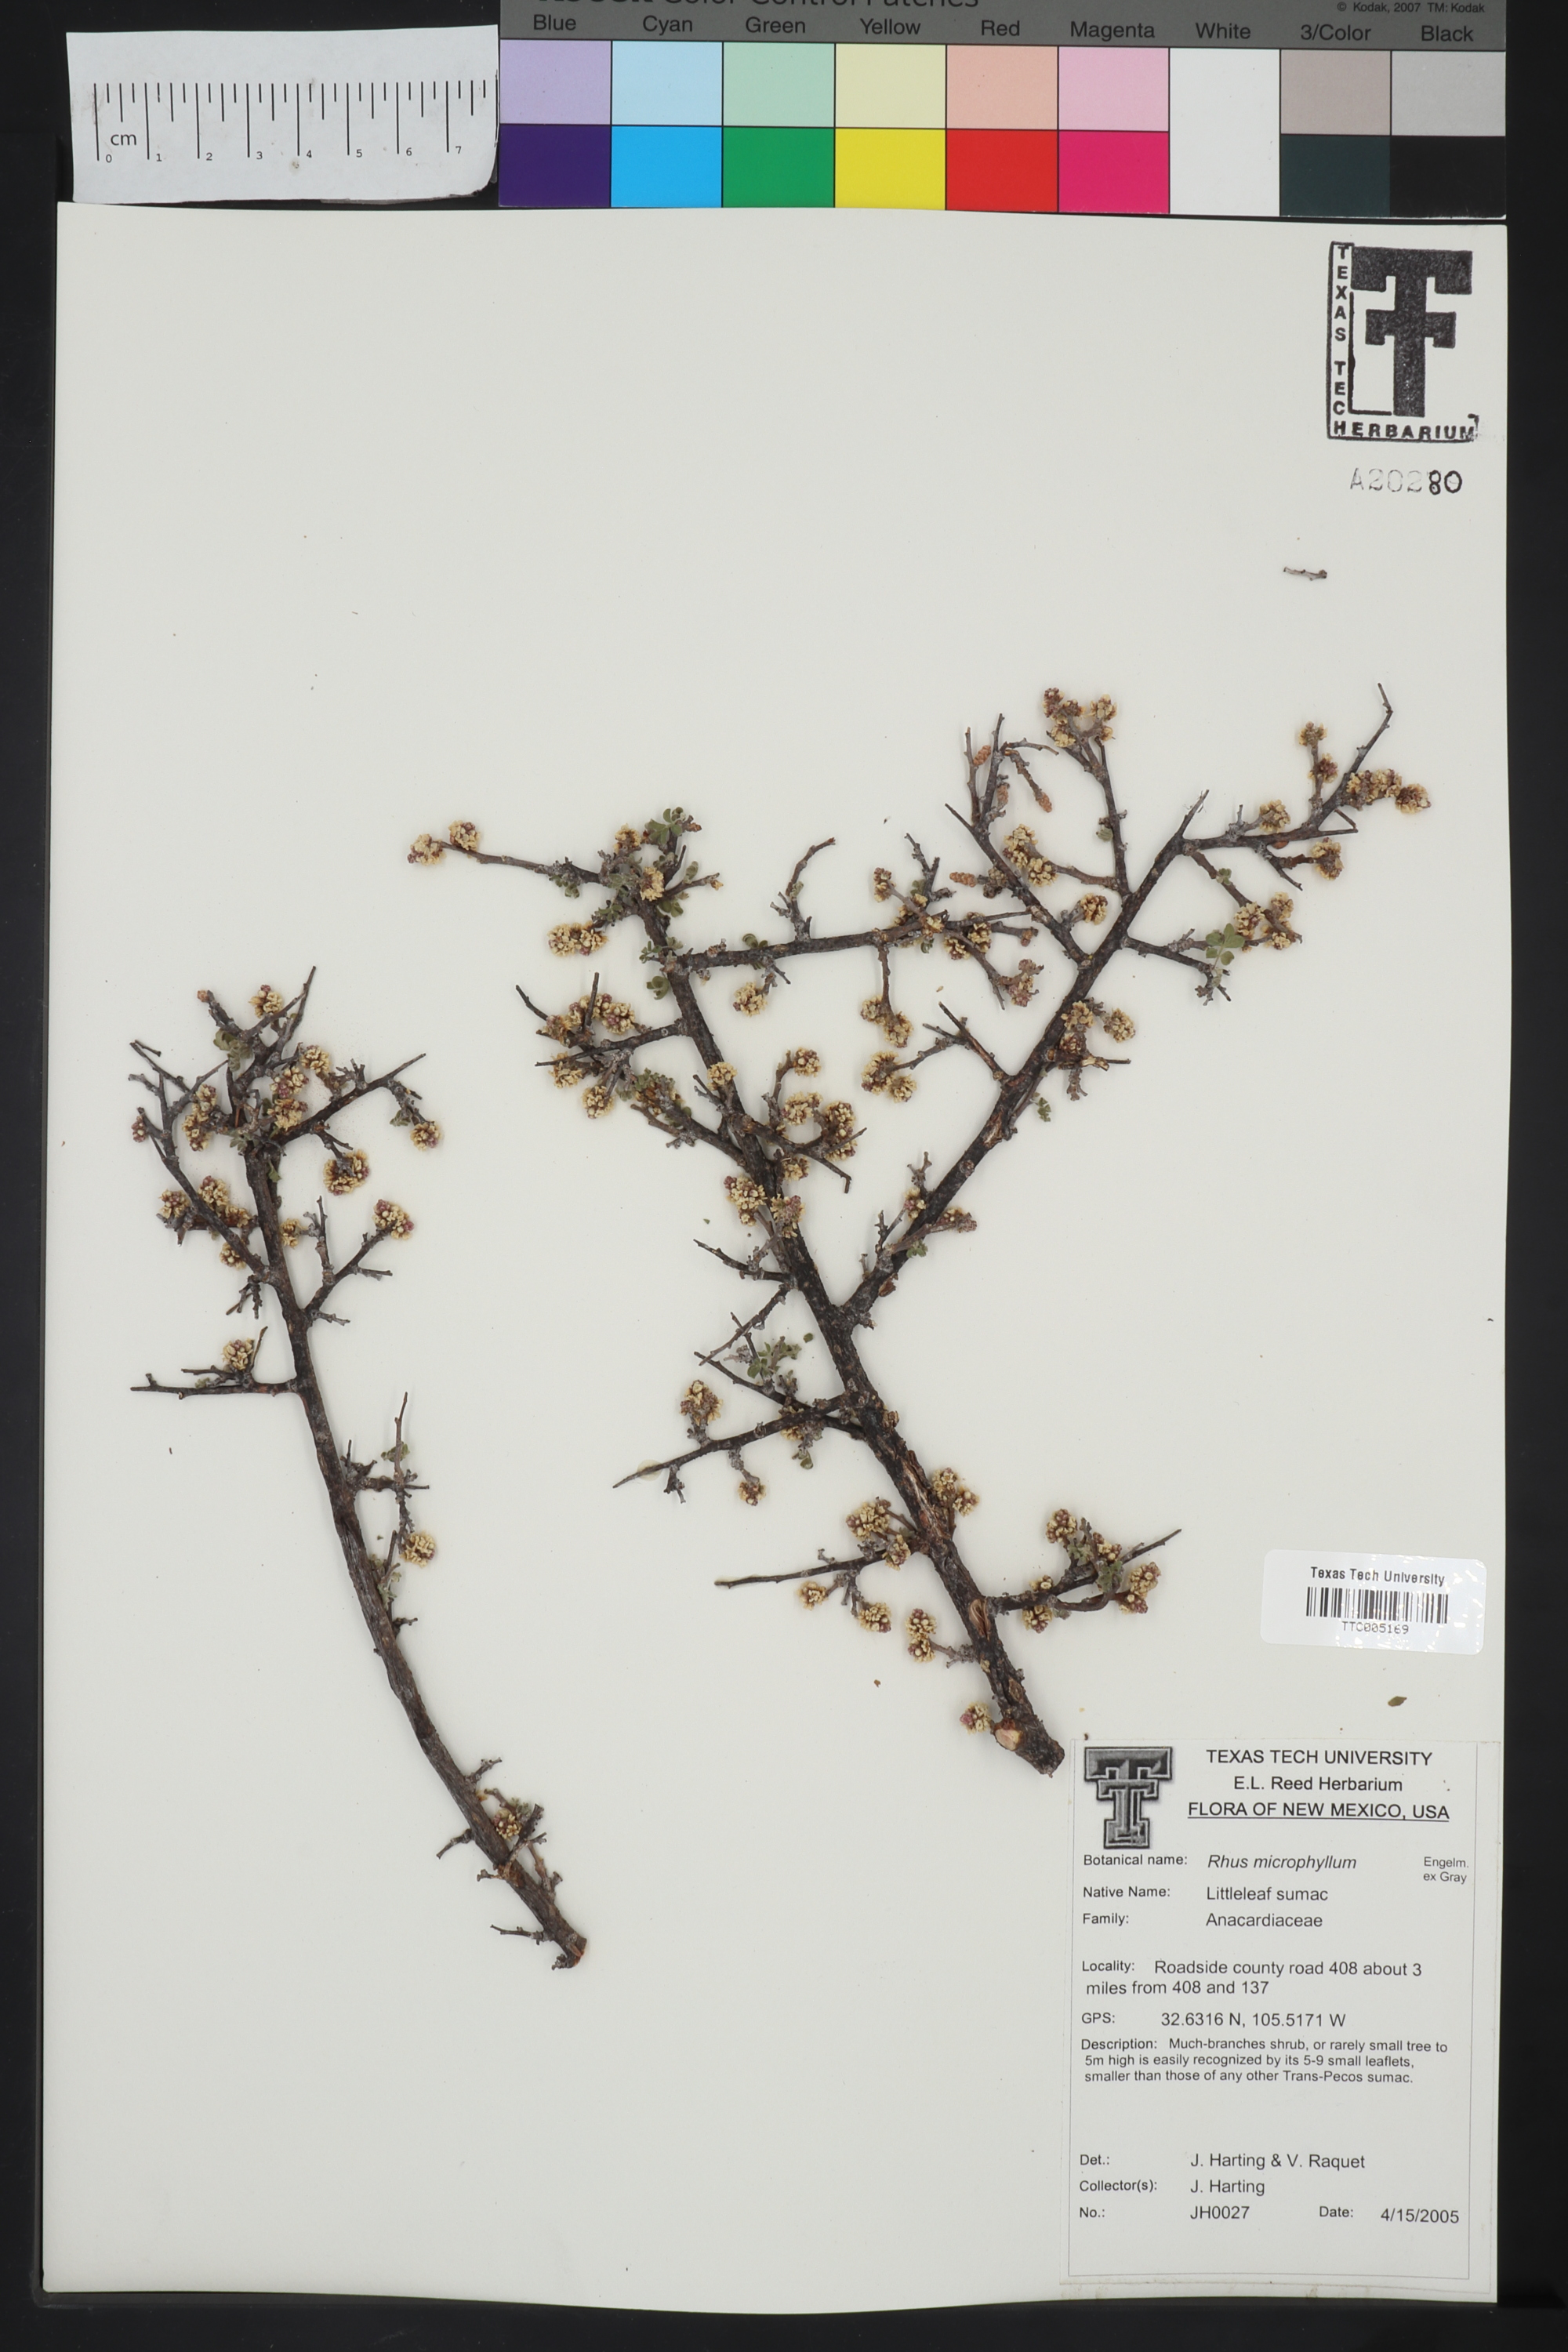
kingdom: Plantae
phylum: Tracheophyta
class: Magnoliopsida
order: Sapindales
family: Anacardiaceae
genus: Rhus
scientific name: Rhus microphylla
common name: Desert sumac
